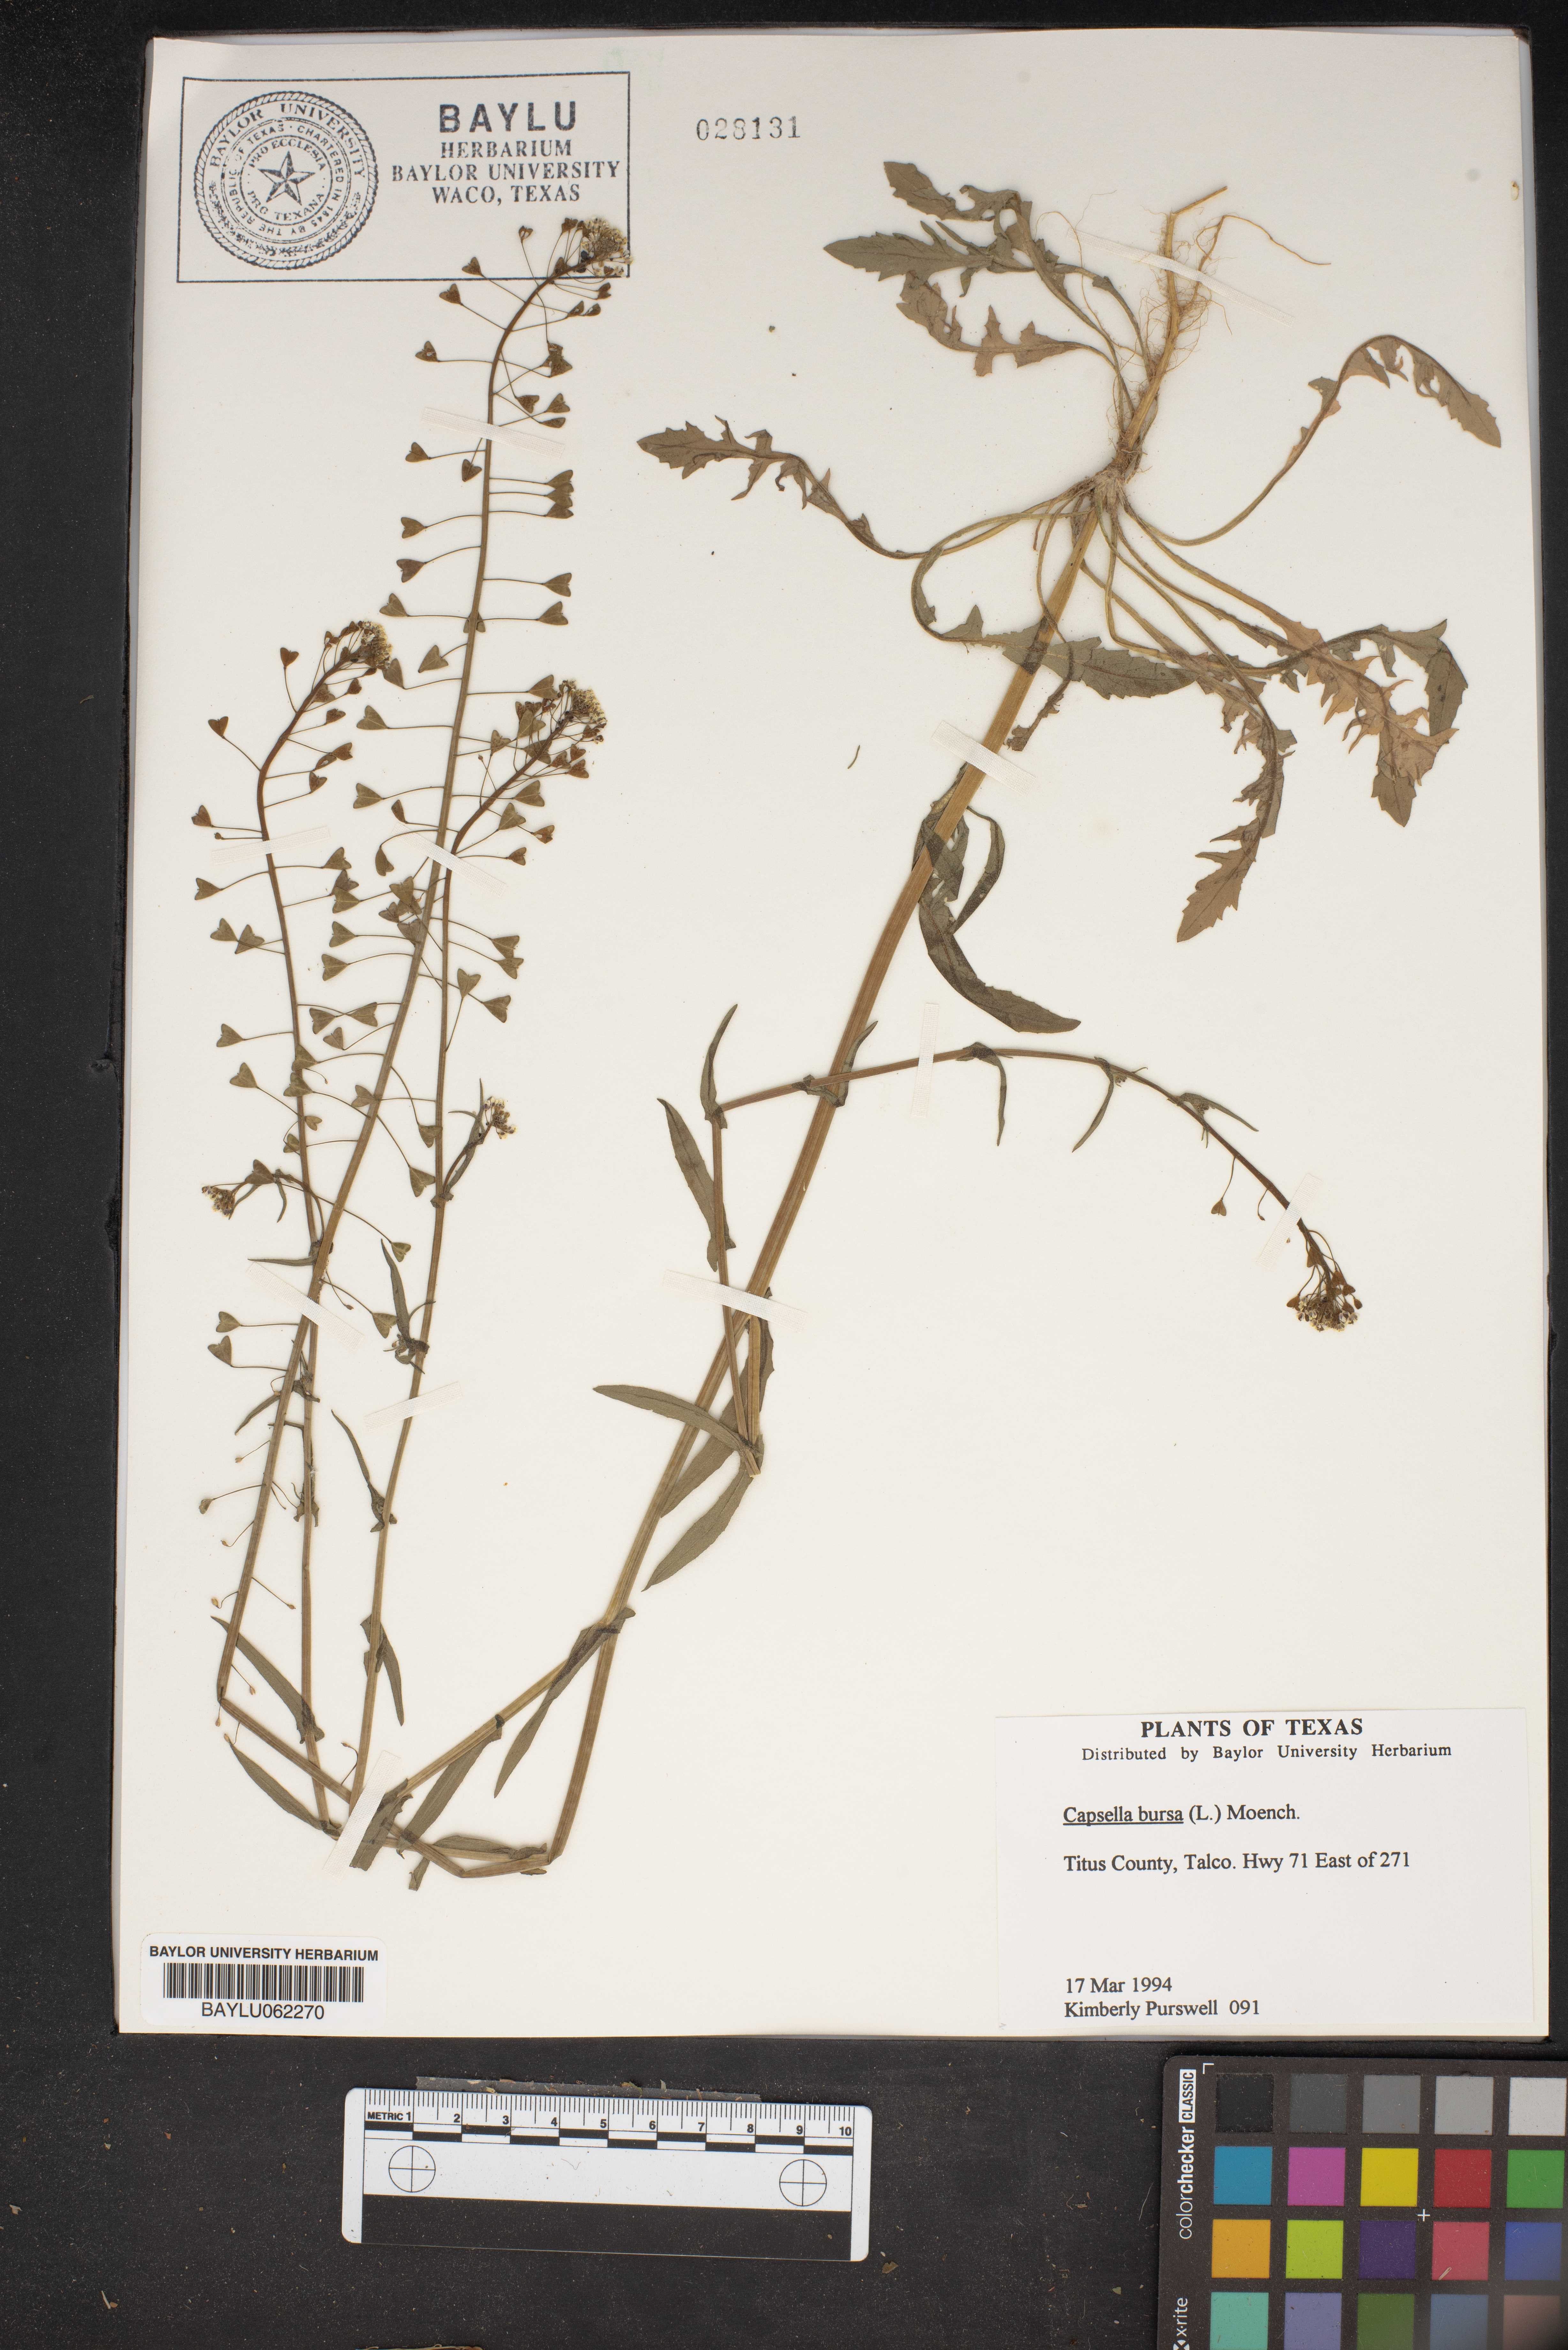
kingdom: Plantae
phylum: Tracheophyta
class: Magnoliopsida
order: Brassicales
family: Brassicaceae
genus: Capsella
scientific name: Capsella bursa-pastoris
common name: Shepherd's purse
